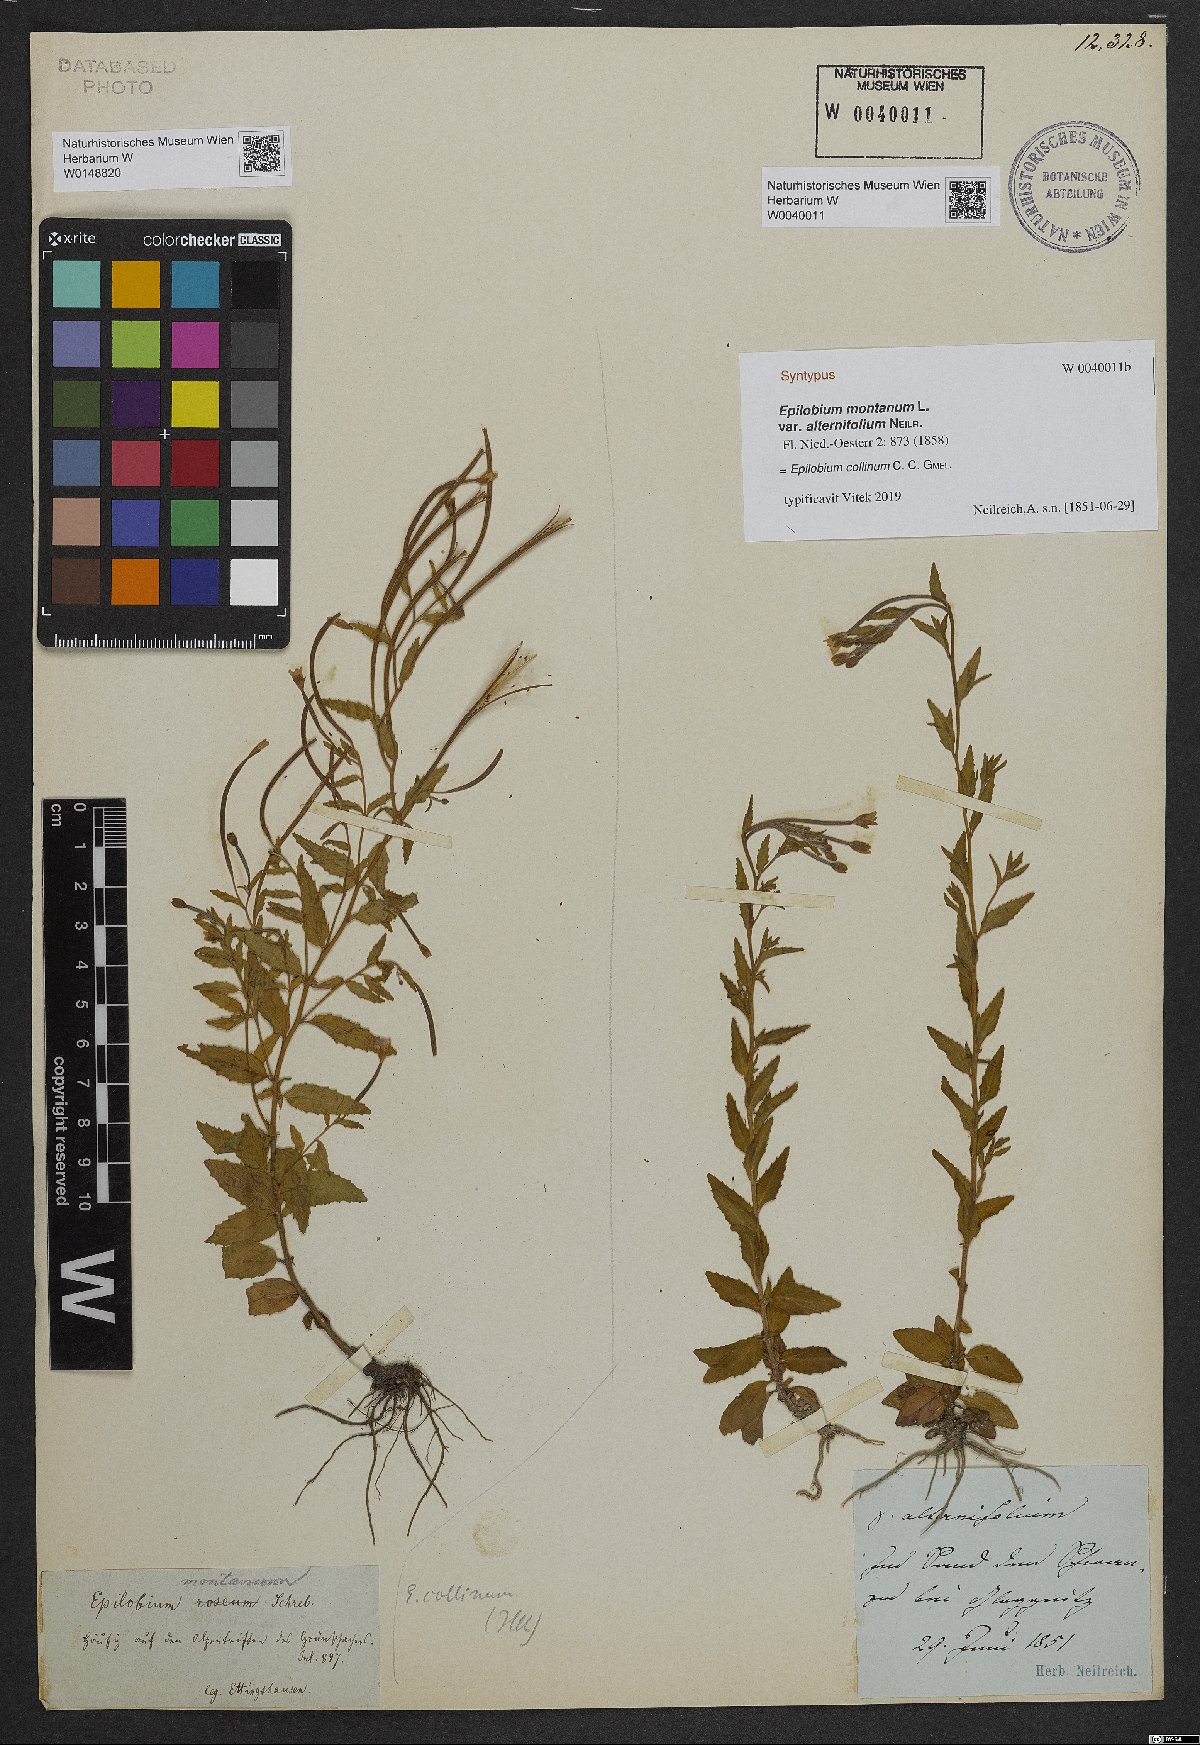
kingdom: Plantae
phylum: Tracheophyta
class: Magnoliopsida
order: Myrtales
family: Onagraceae
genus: Epilobium
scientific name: Epilobium montanum
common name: Broad-leaved willowherb
